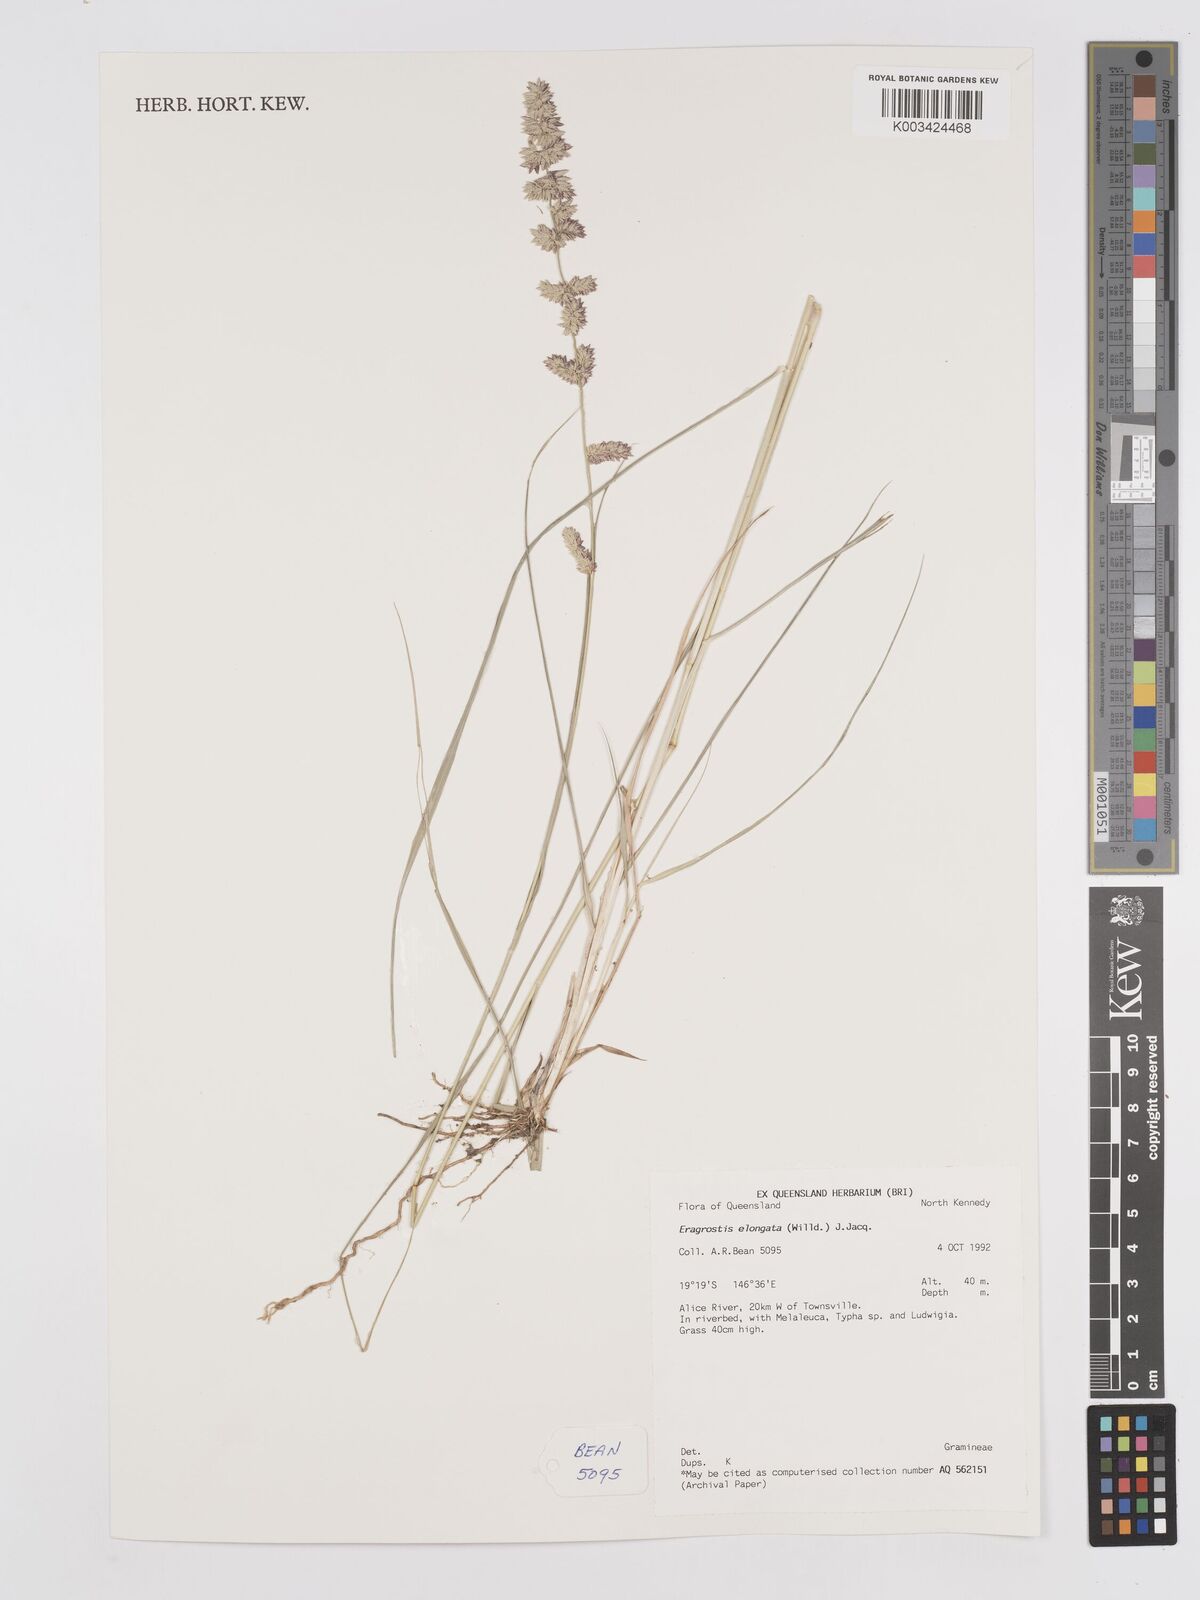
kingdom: Plantae
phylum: Tracheophyta
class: Liliopsida
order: Poales
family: Poaceae
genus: Eragrostis
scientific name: Eragrostis elongata
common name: Long lovegrass
